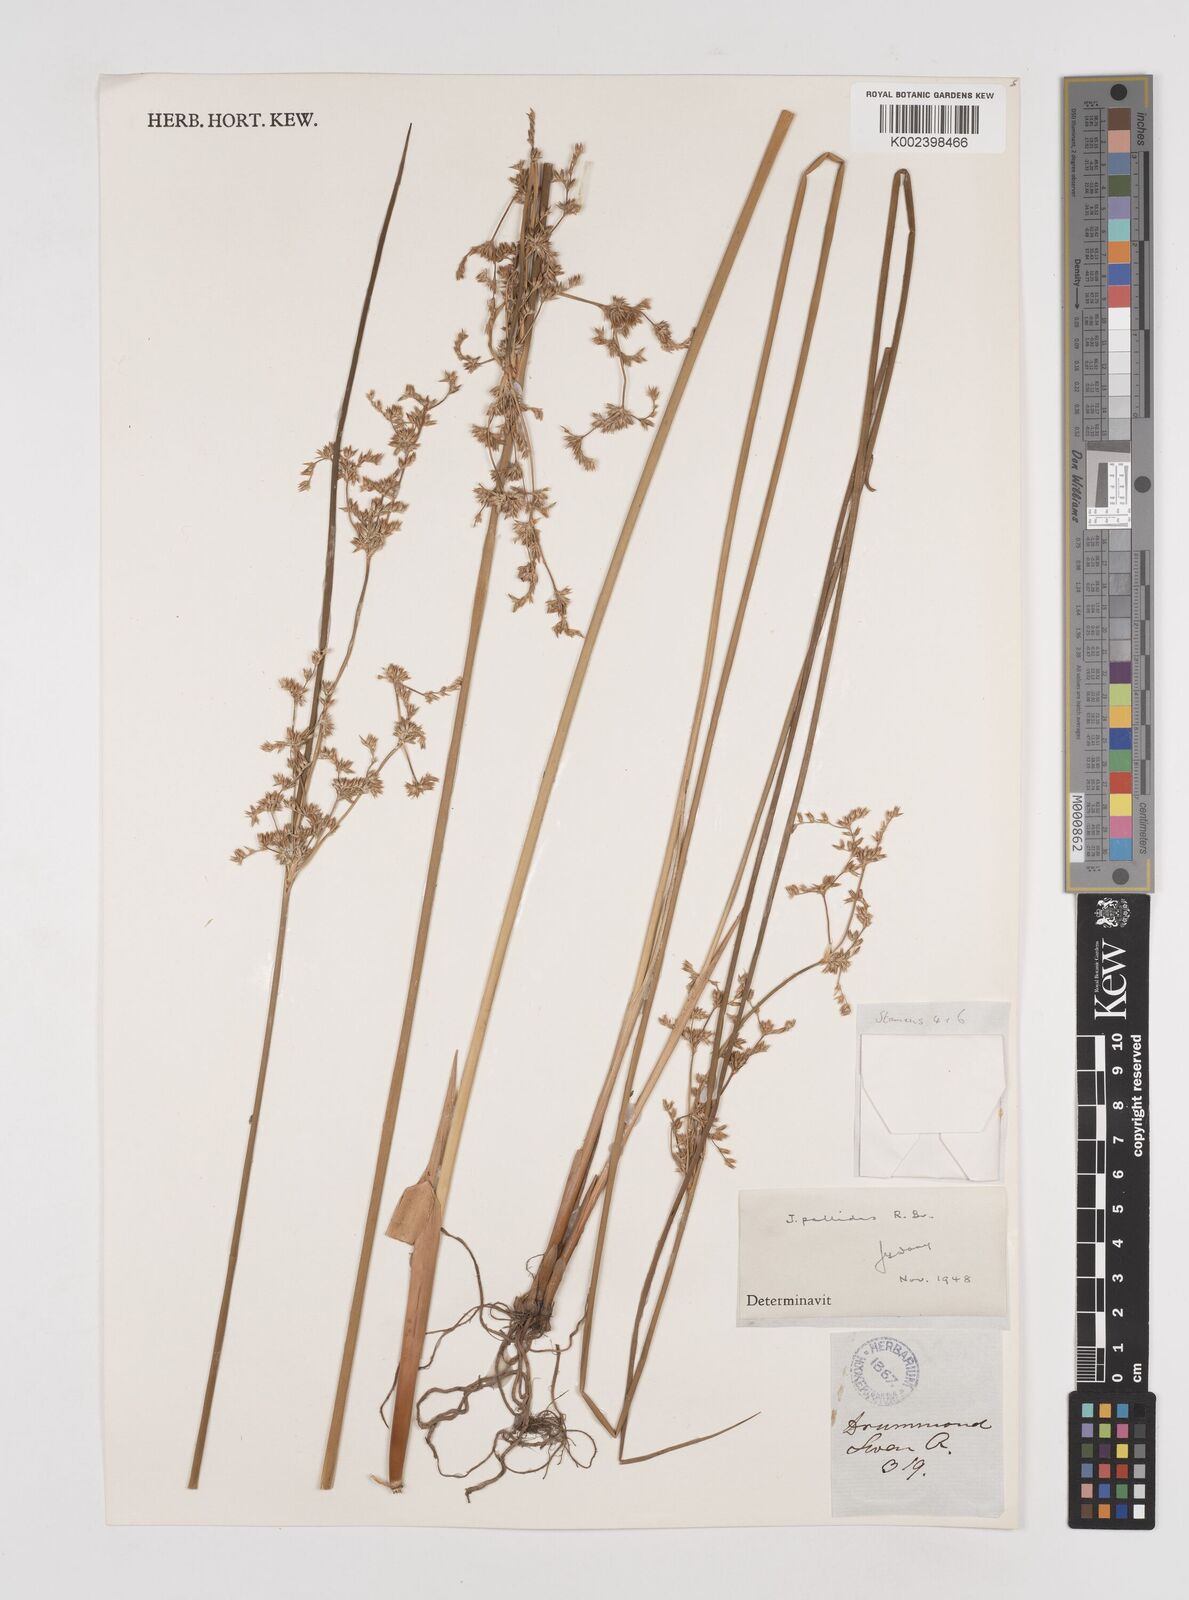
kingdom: Plantae
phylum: Tracheophyta
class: Liliopsida
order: Poales
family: Juncaceae
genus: Juncus
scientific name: Juncus pallidus
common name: Great soft-rush
